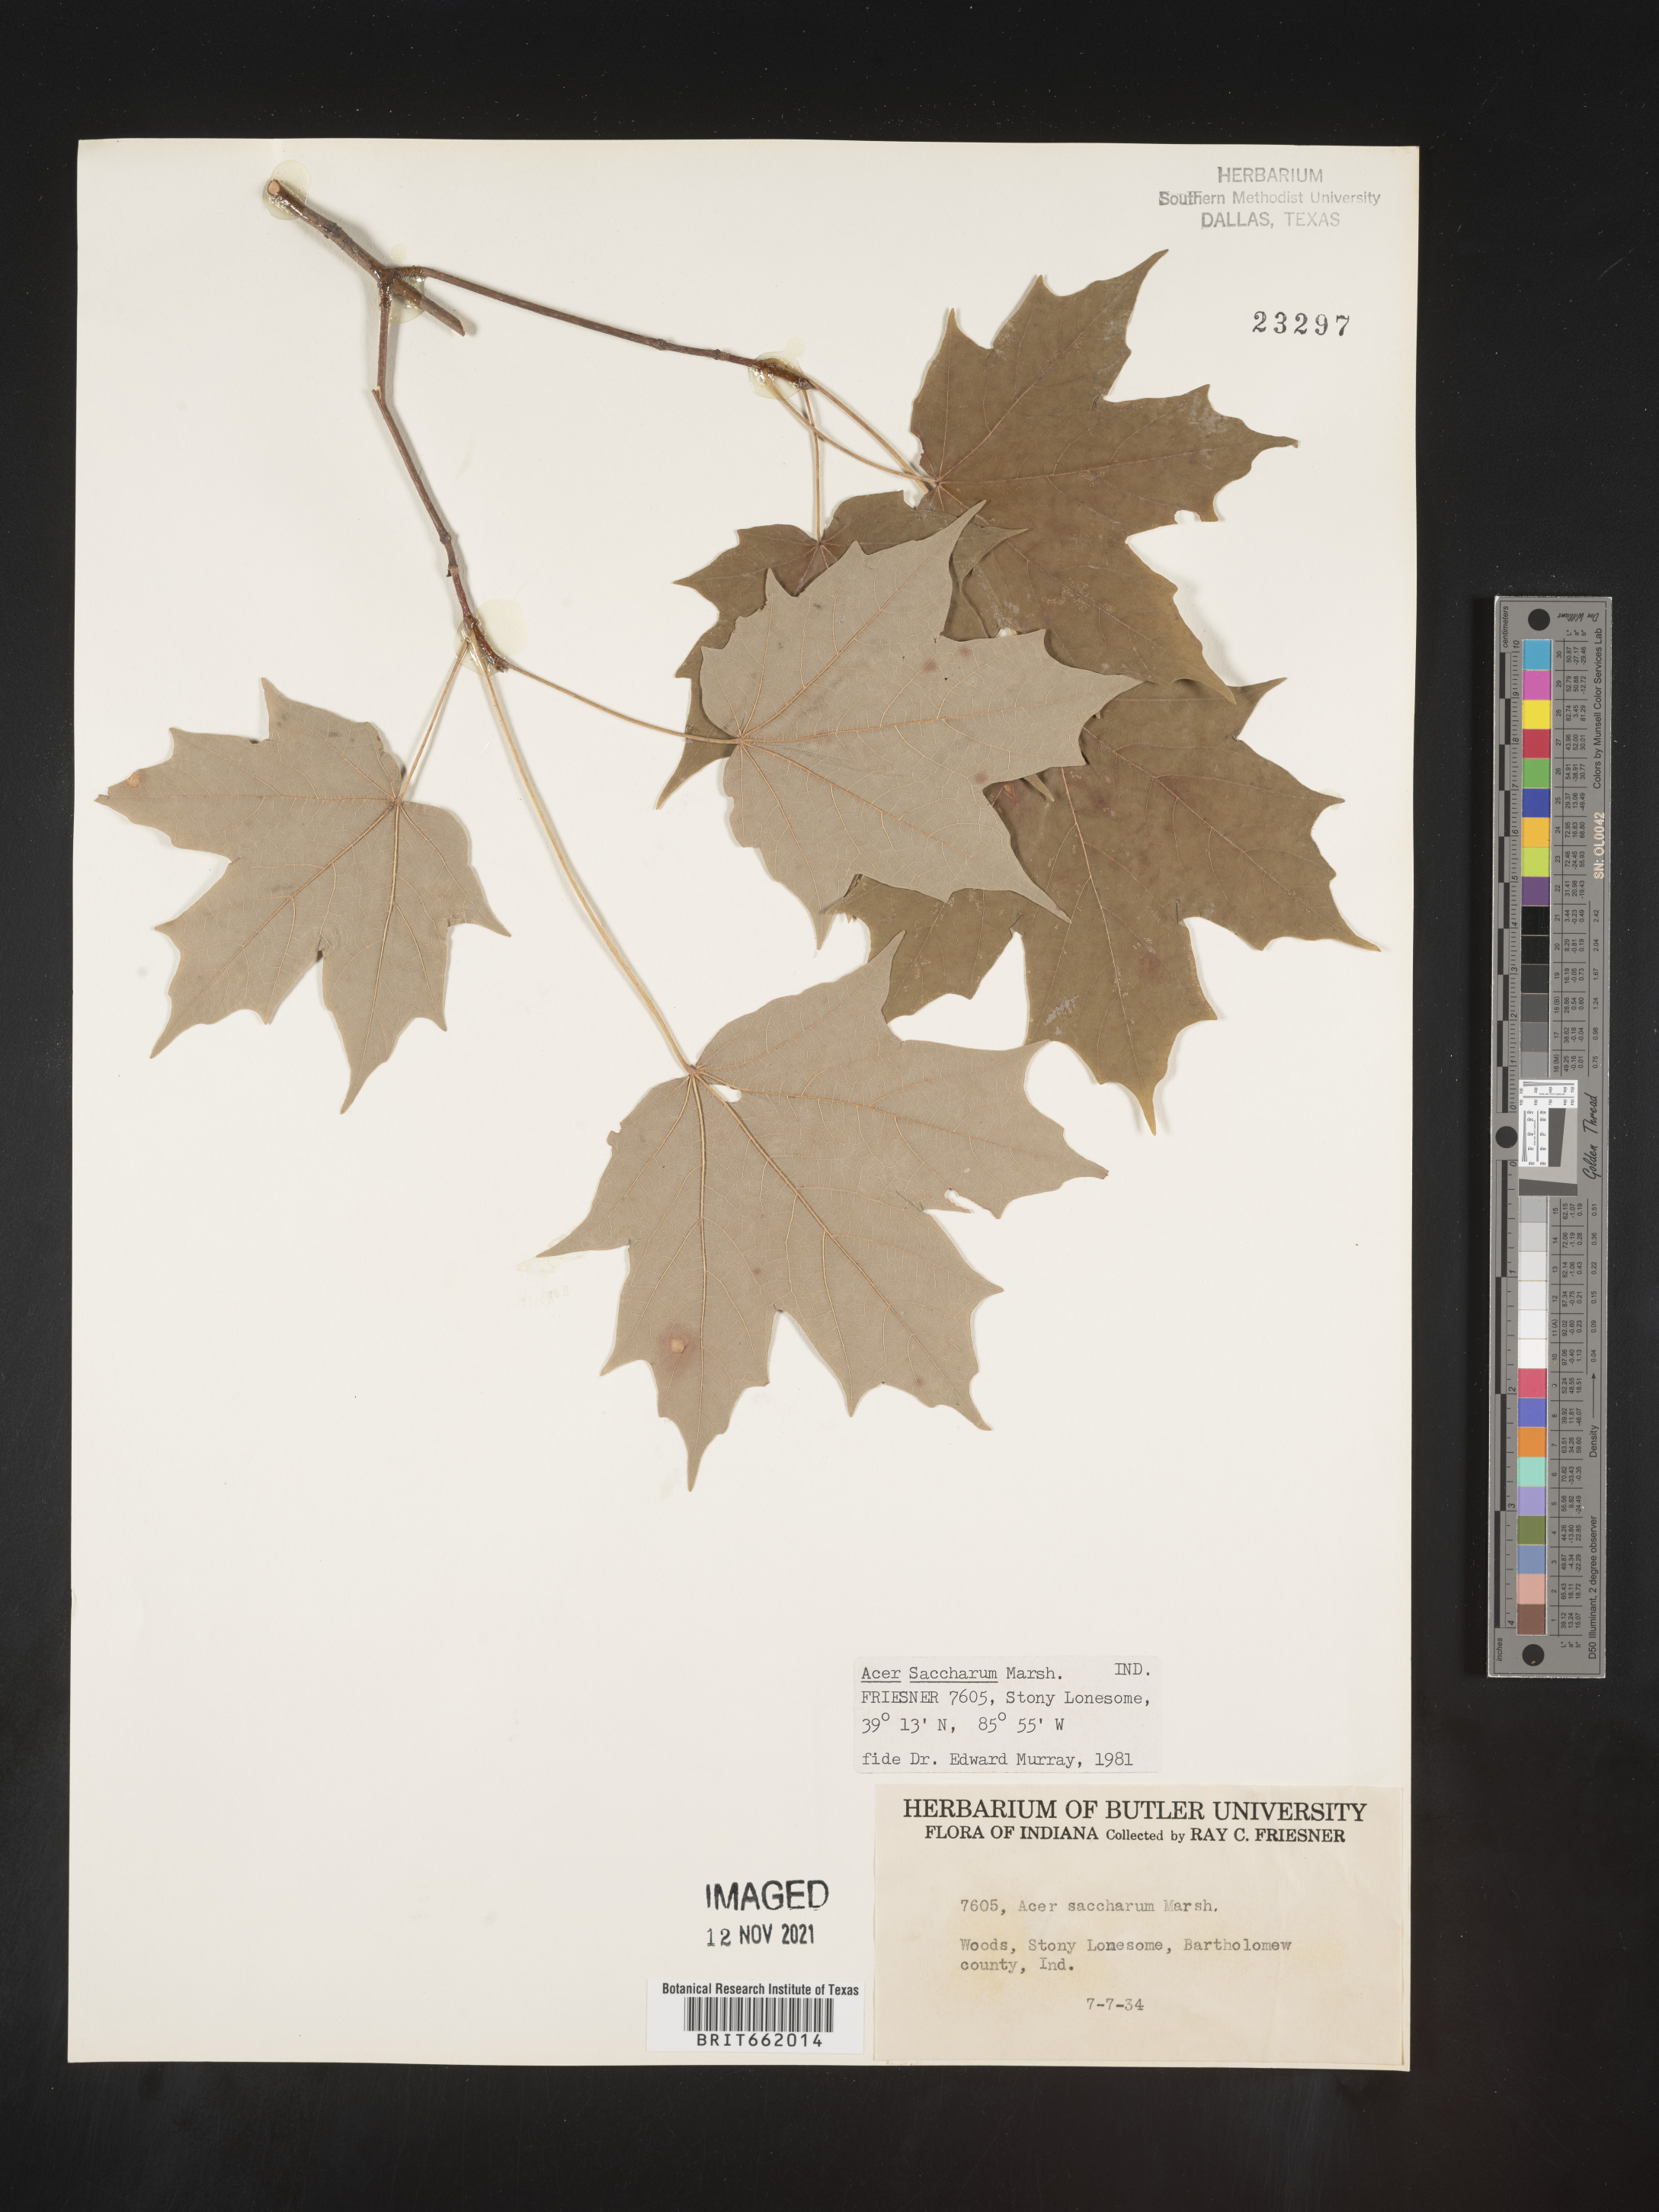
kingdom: Plantae
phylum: Tracheophyta
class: Magnoliopsida
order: Sapindales
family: Sapindaceae
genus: Acer
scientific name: Acer saccharum
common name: Sugar maple
